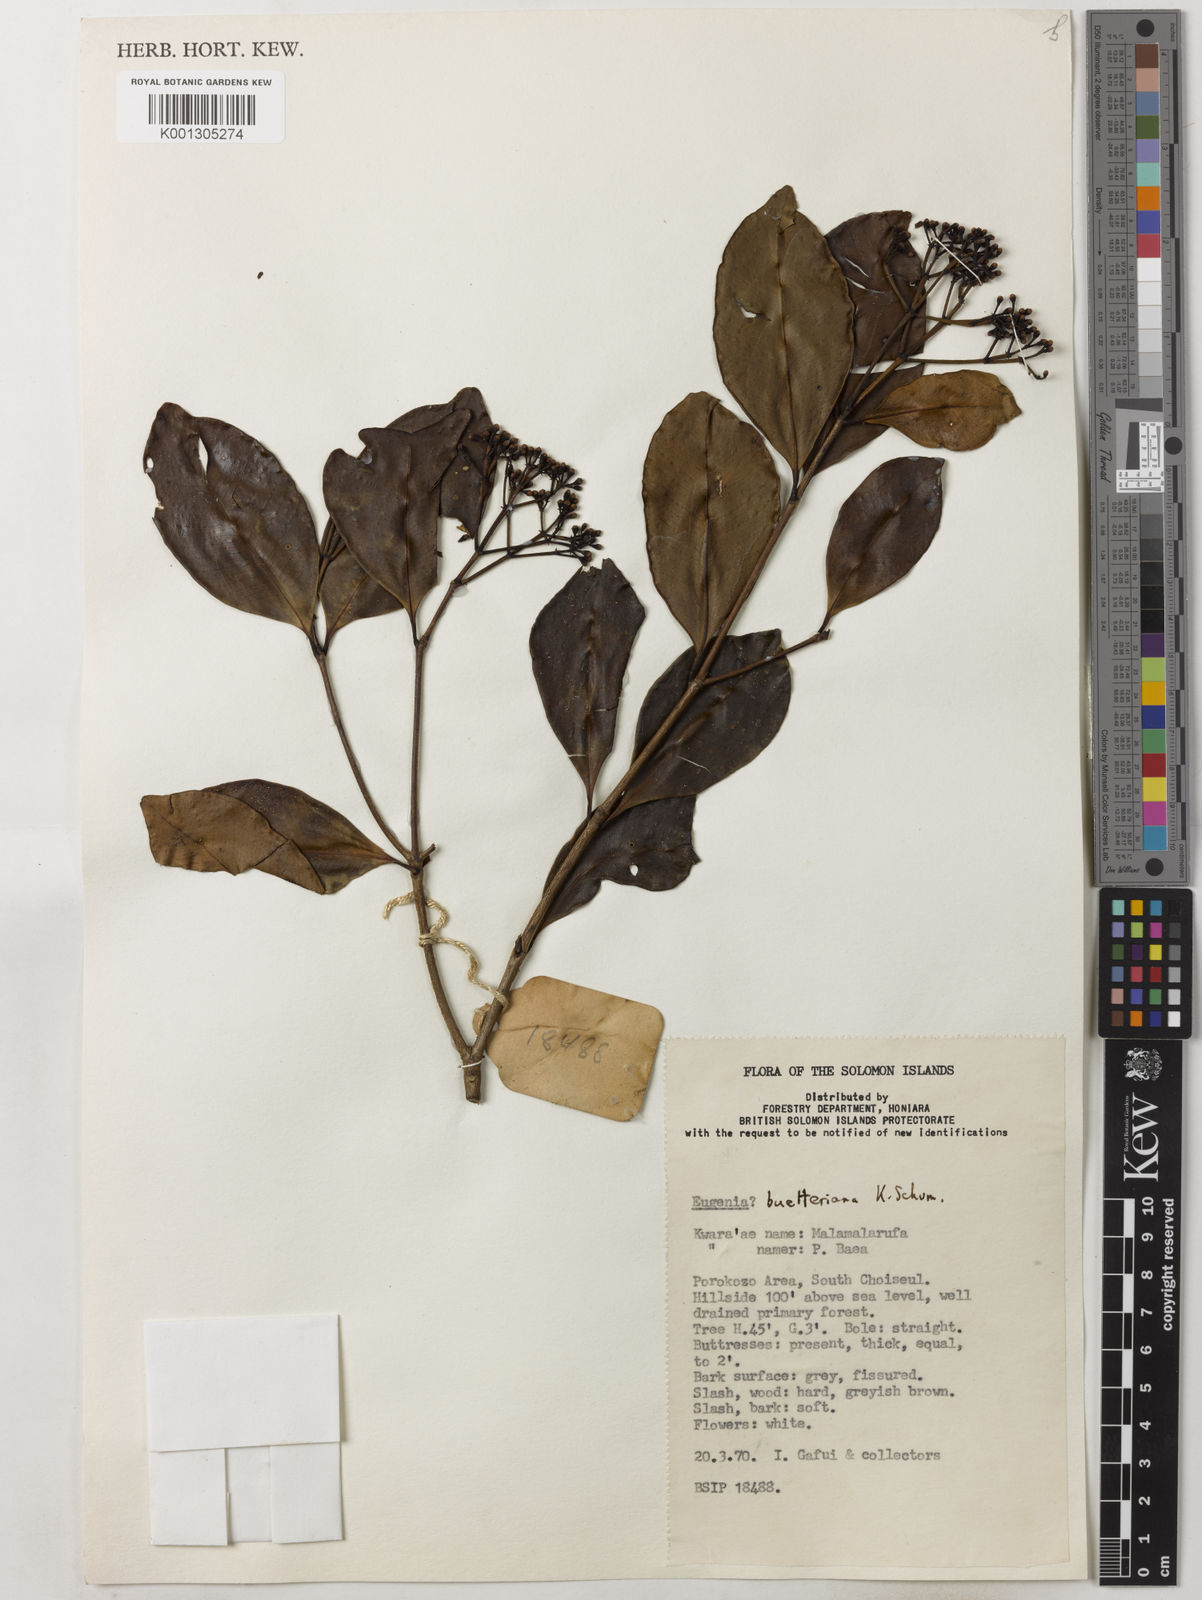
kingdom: Plantae
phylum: Tracheophyta
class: Magnoliopsida
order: Myrtales
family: Myrtaceae
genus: Syzygium
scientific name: Syzygium buettnerianum
